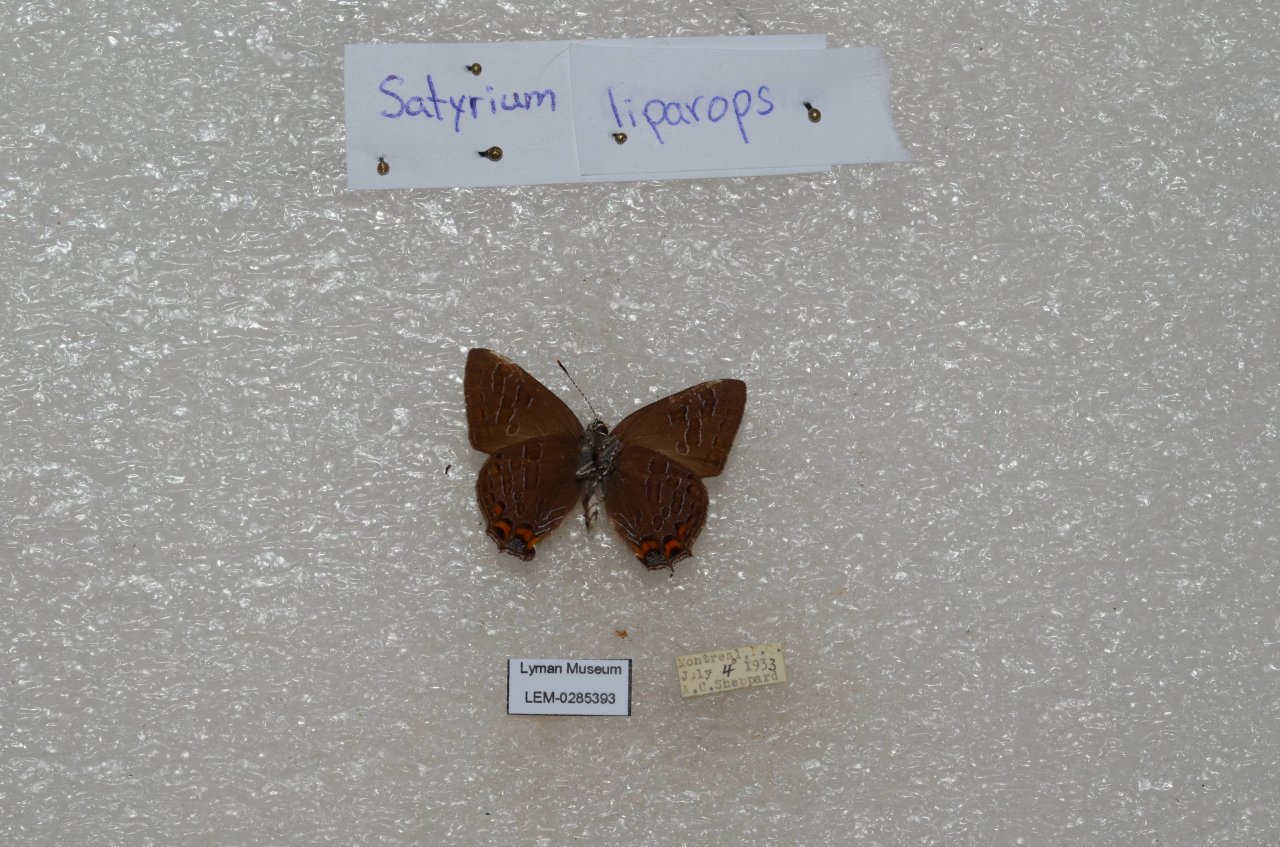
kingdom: Animalia
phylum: Arthropoda
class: Insecta
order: Lepidoptera
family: Lycaenidae
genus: Satyrium
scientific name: Satyrium liparops
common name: Striped Hairstreak
